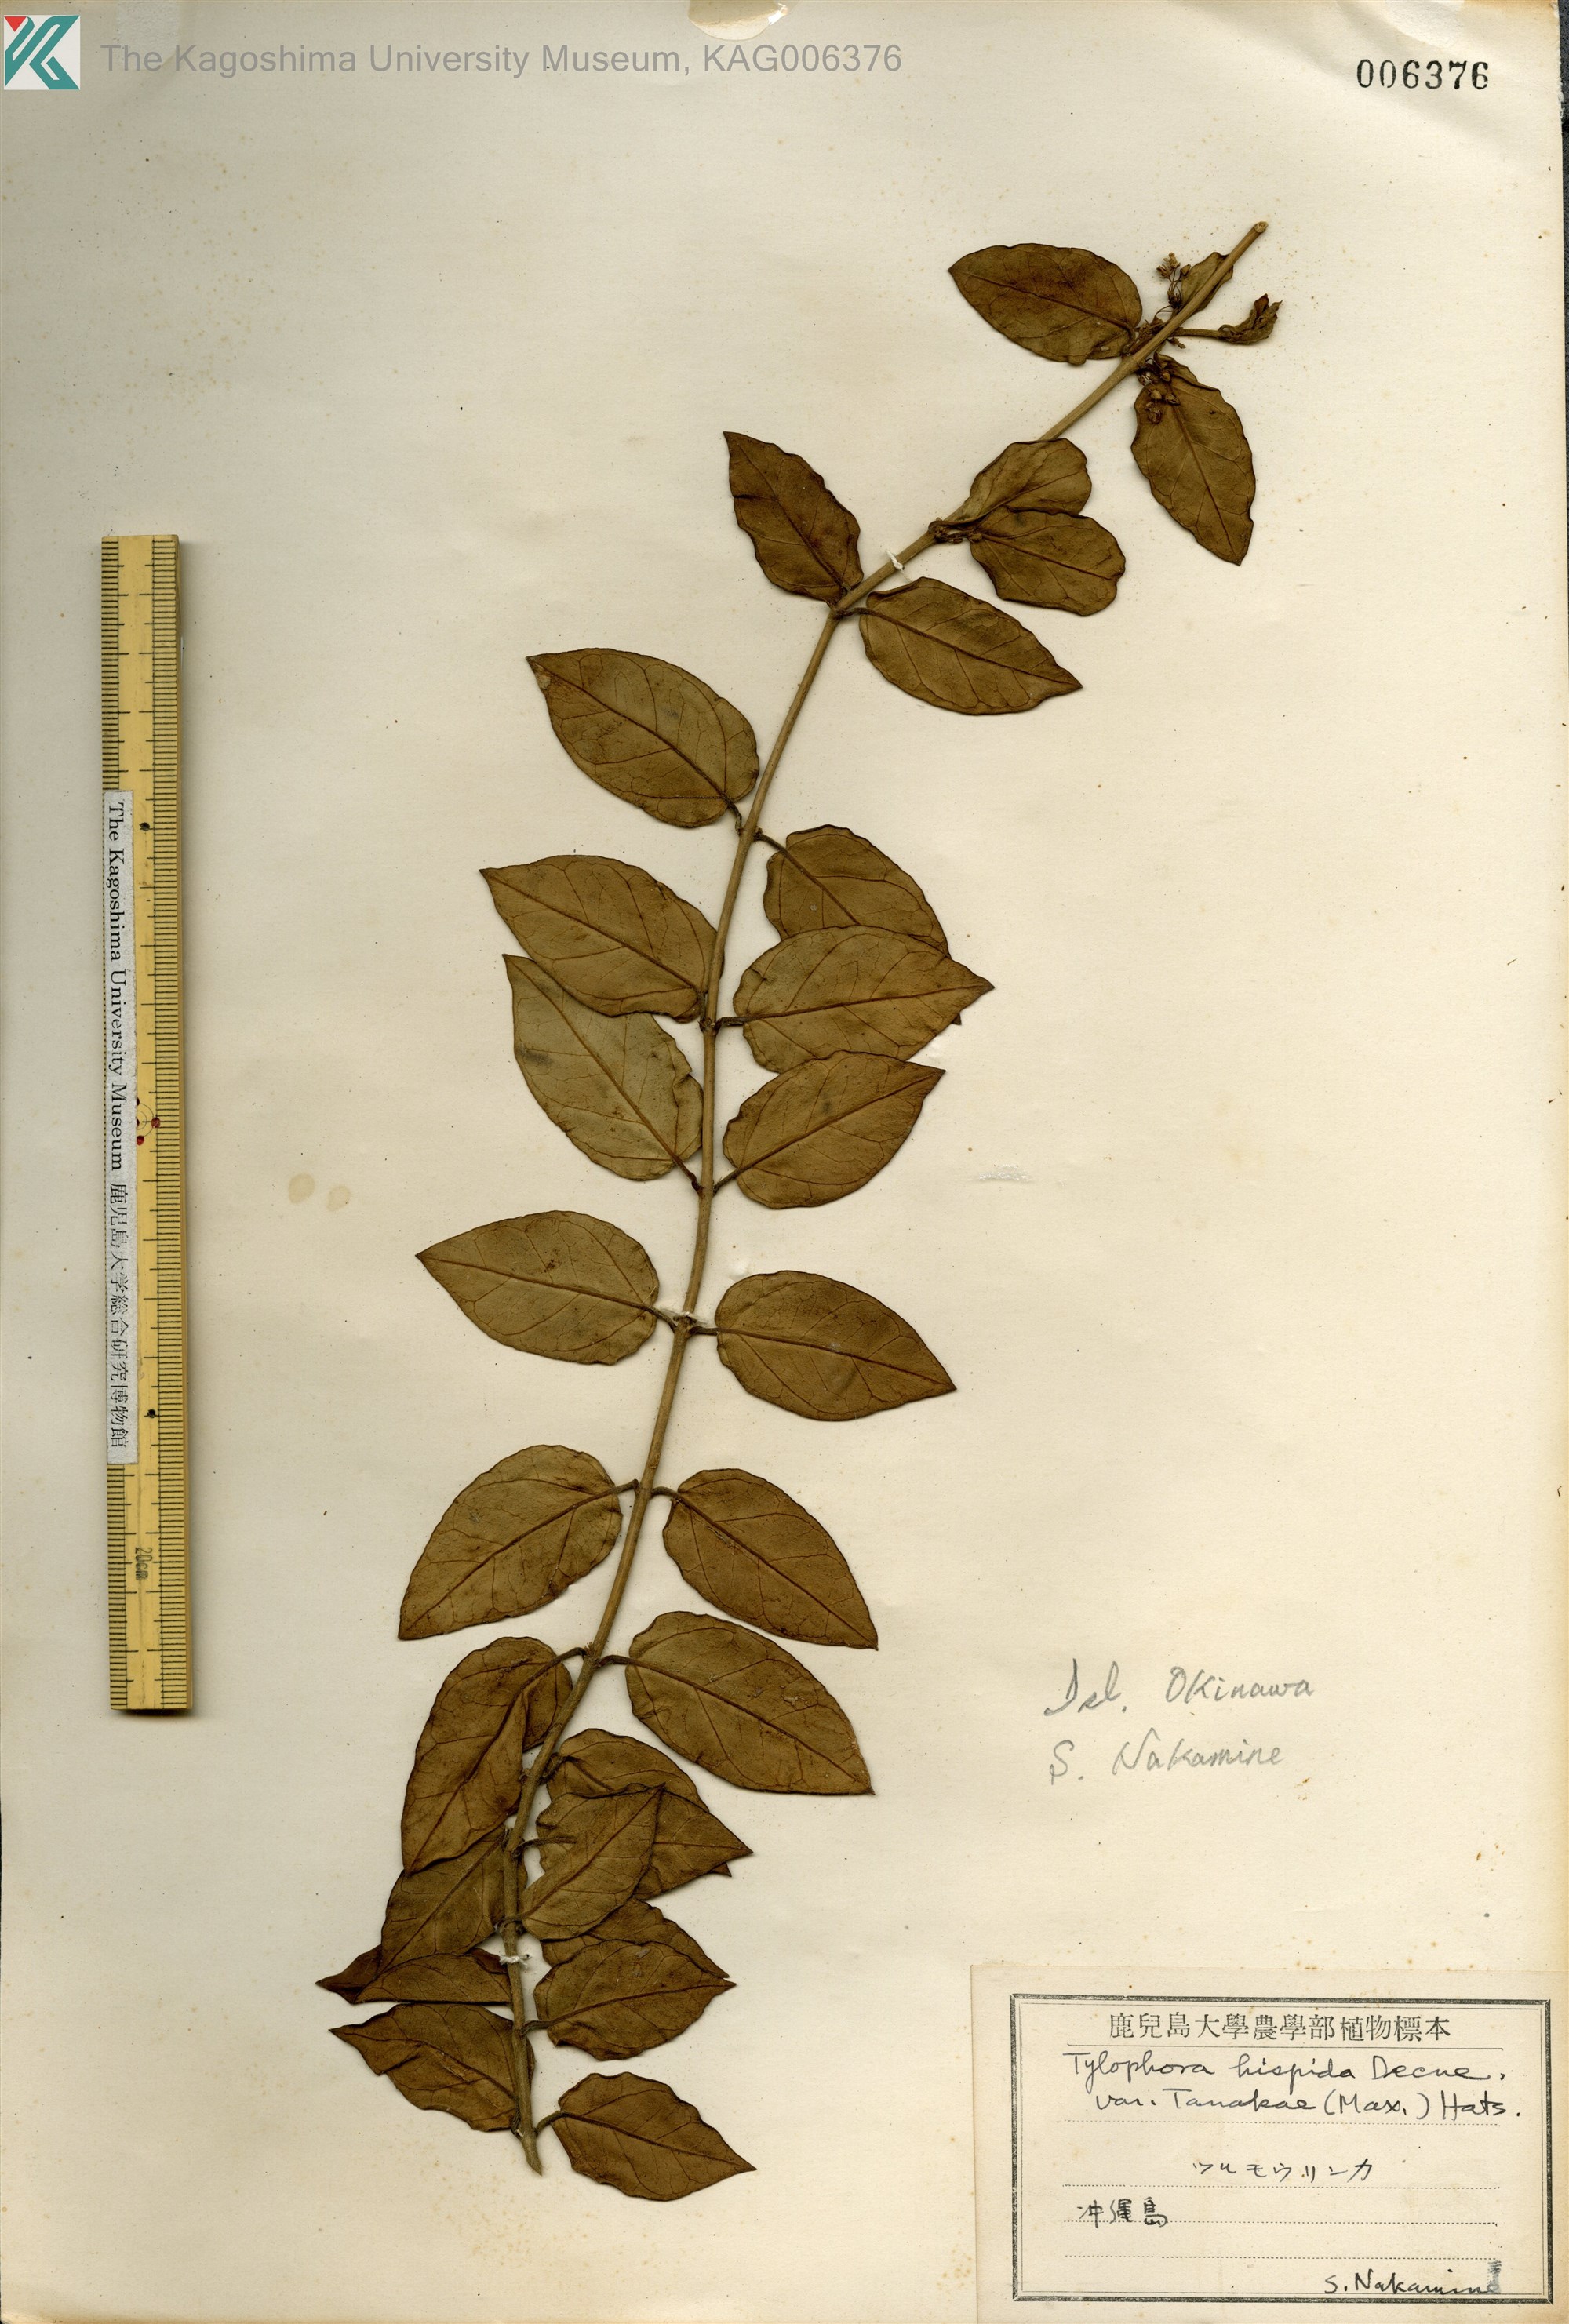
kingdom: Plantae
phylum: Tracheophyta
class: Magnoliopsida
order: Gentianales
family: Apocynaceae
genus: Vincetoxicum
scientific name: Vincetoxicum hirsutum
